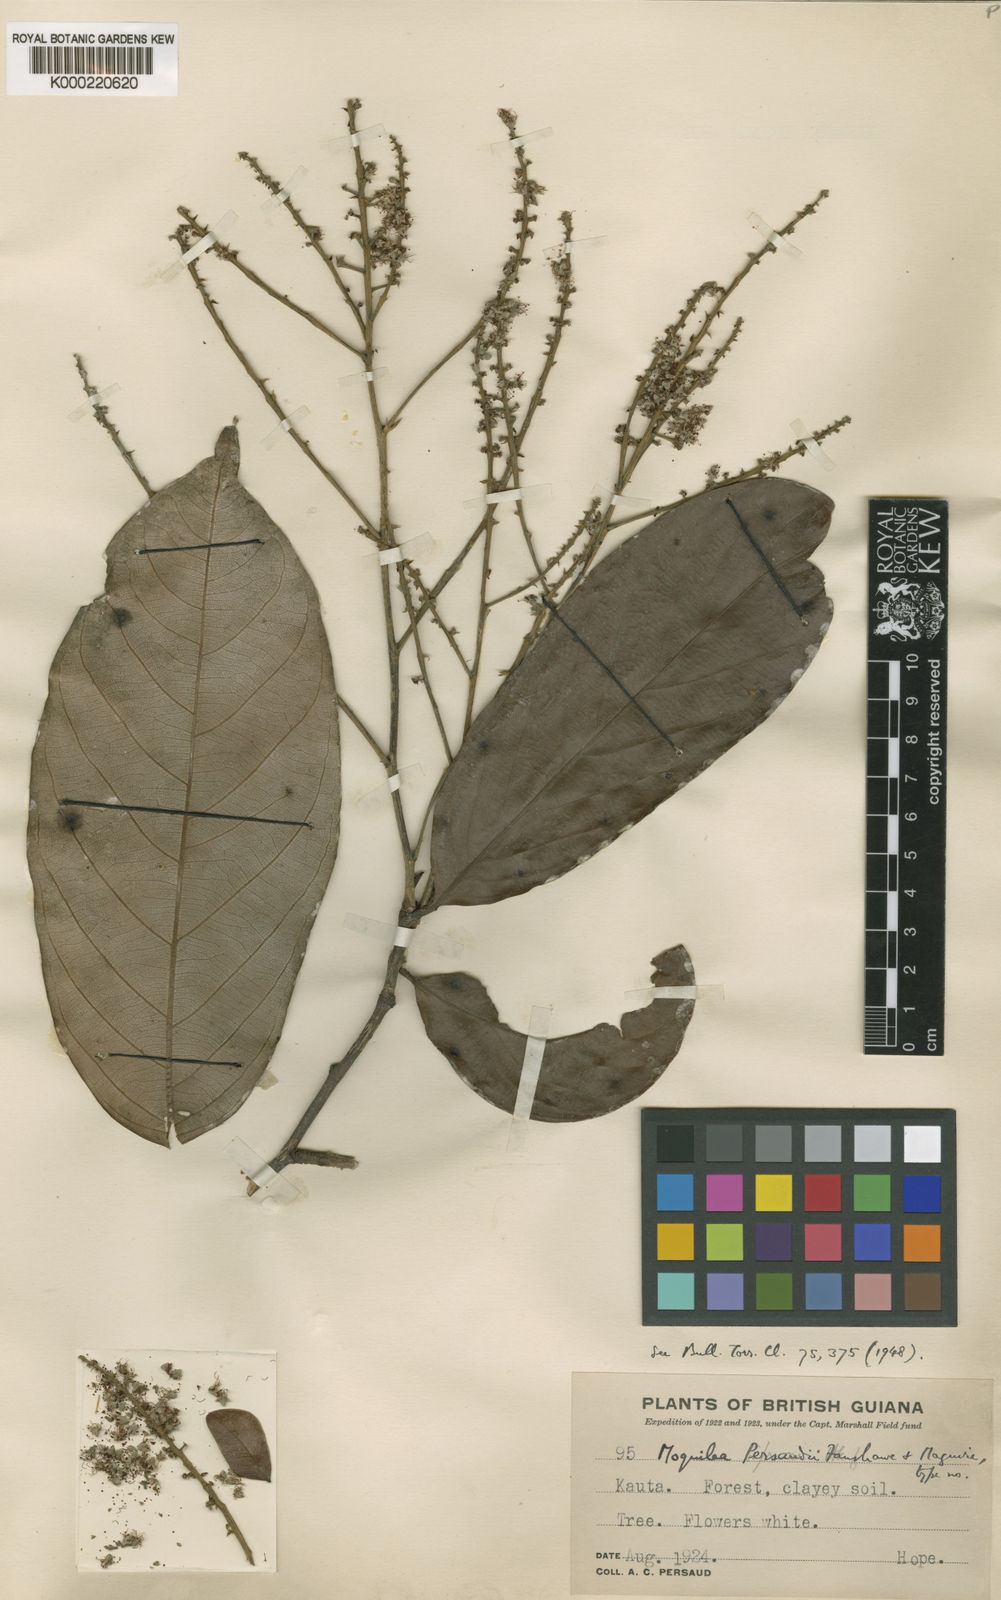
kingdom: Plantae
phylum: Tracheophyta
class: Magnoliopsida
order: Malpighiales
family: Chrysobalanaceae
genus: Leptobalanus
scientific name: Leptobalanus persaudii
